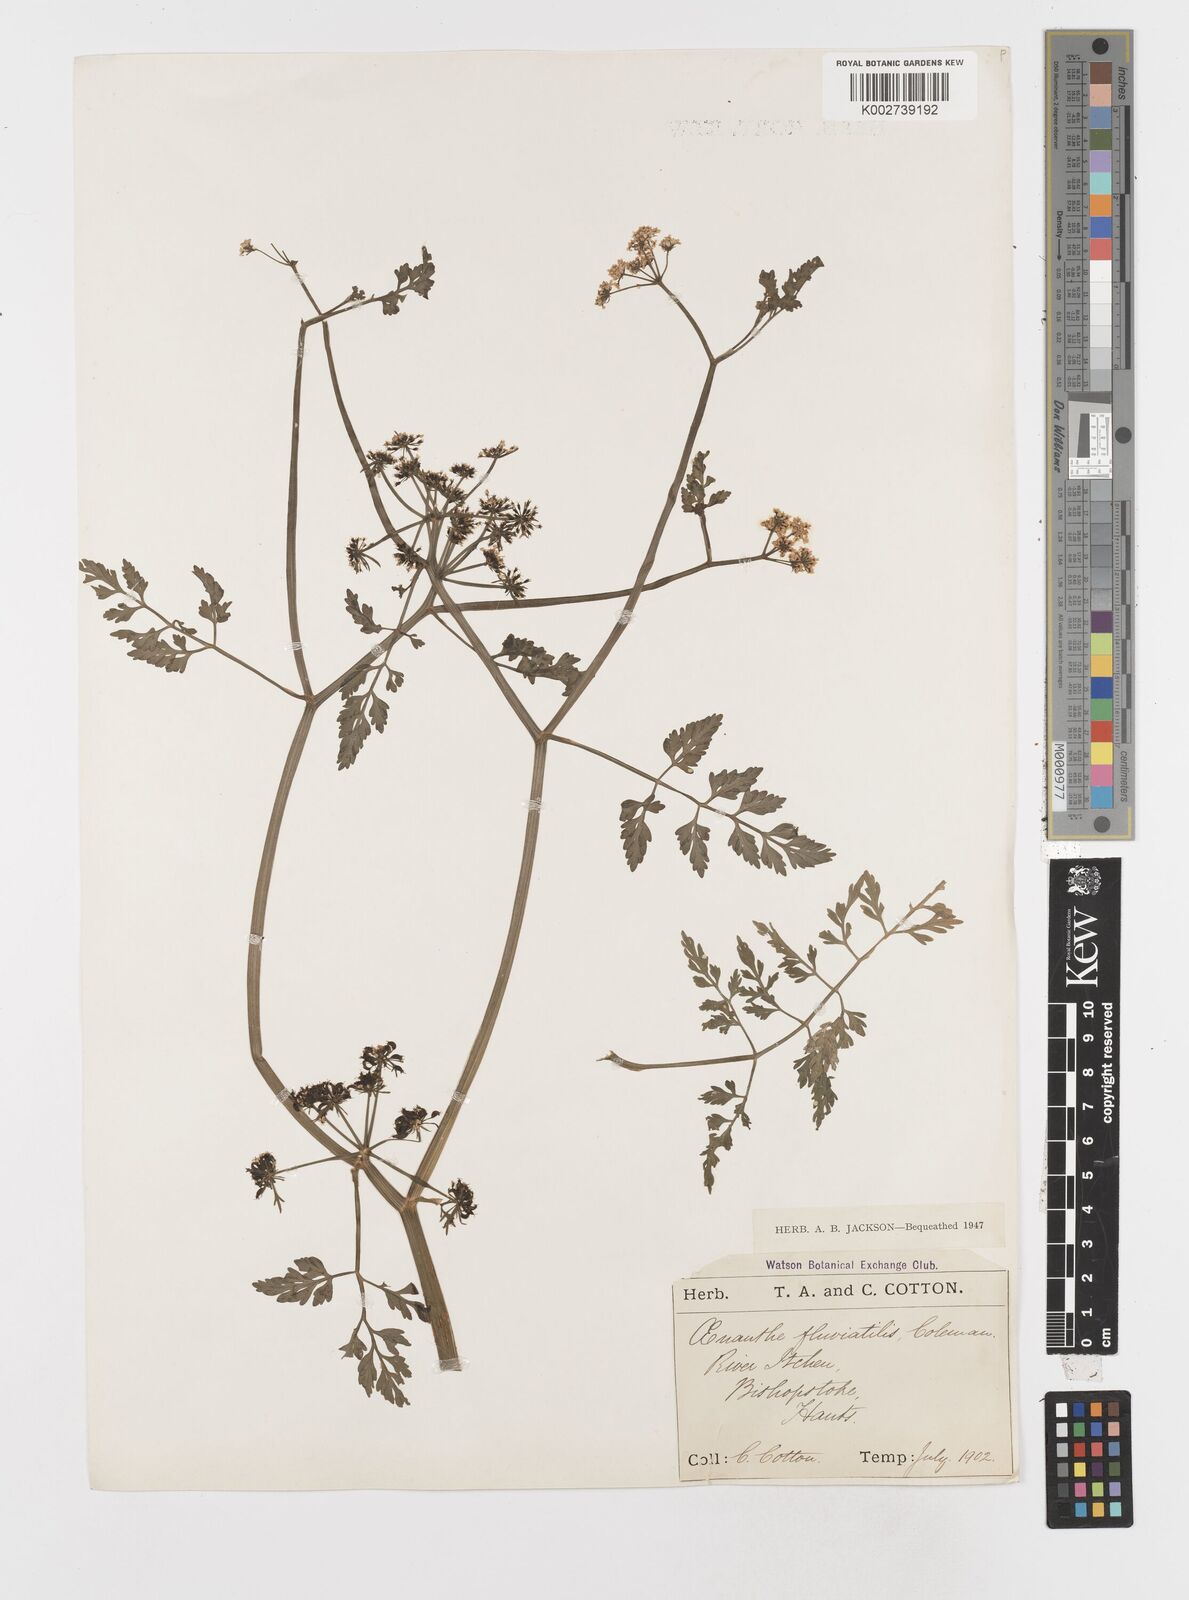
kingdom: Plantae
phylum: Tracheophyta
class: Magnoliopsida
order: Apiales
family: Apiaceae
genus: Oenanthe
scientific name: Oenanthe fluviatilis
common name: River water-dropwort
